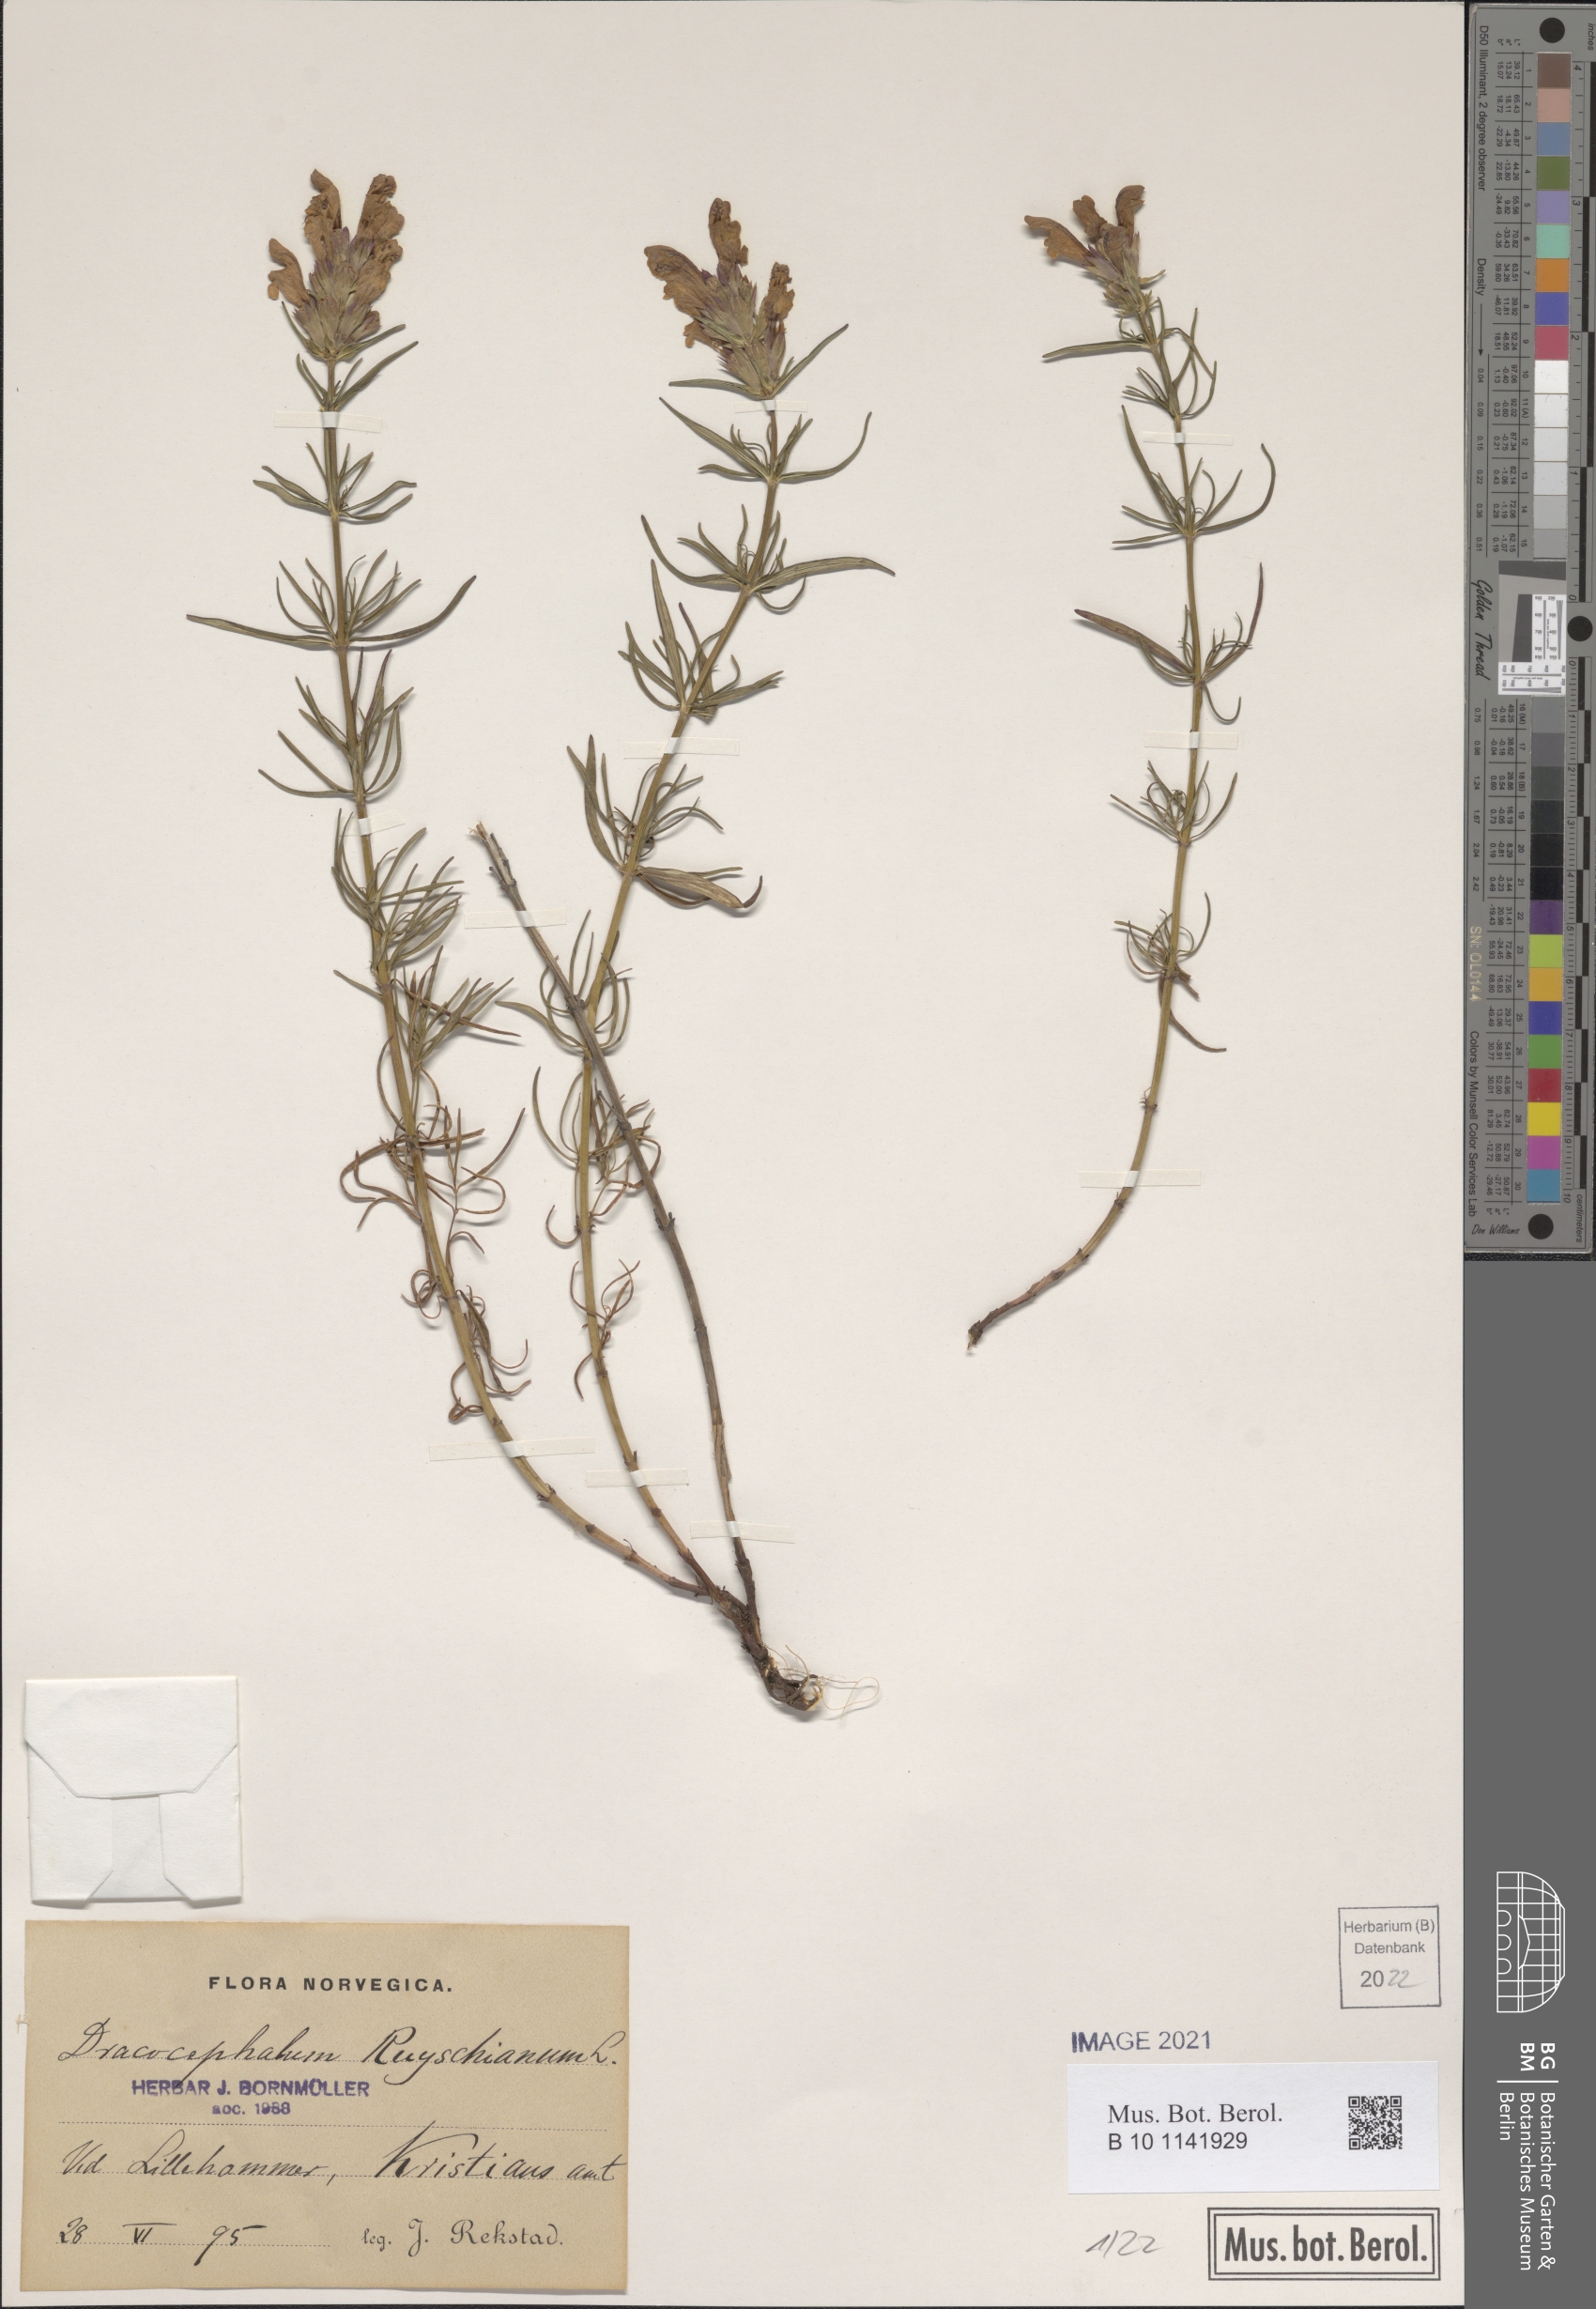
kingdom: Plantae
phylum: Tracheophyta
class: Magnoliopsida
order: Lamiales
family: Lamiaceae
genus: Dracocephalum
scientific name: Dracocephalum ruyschiana
